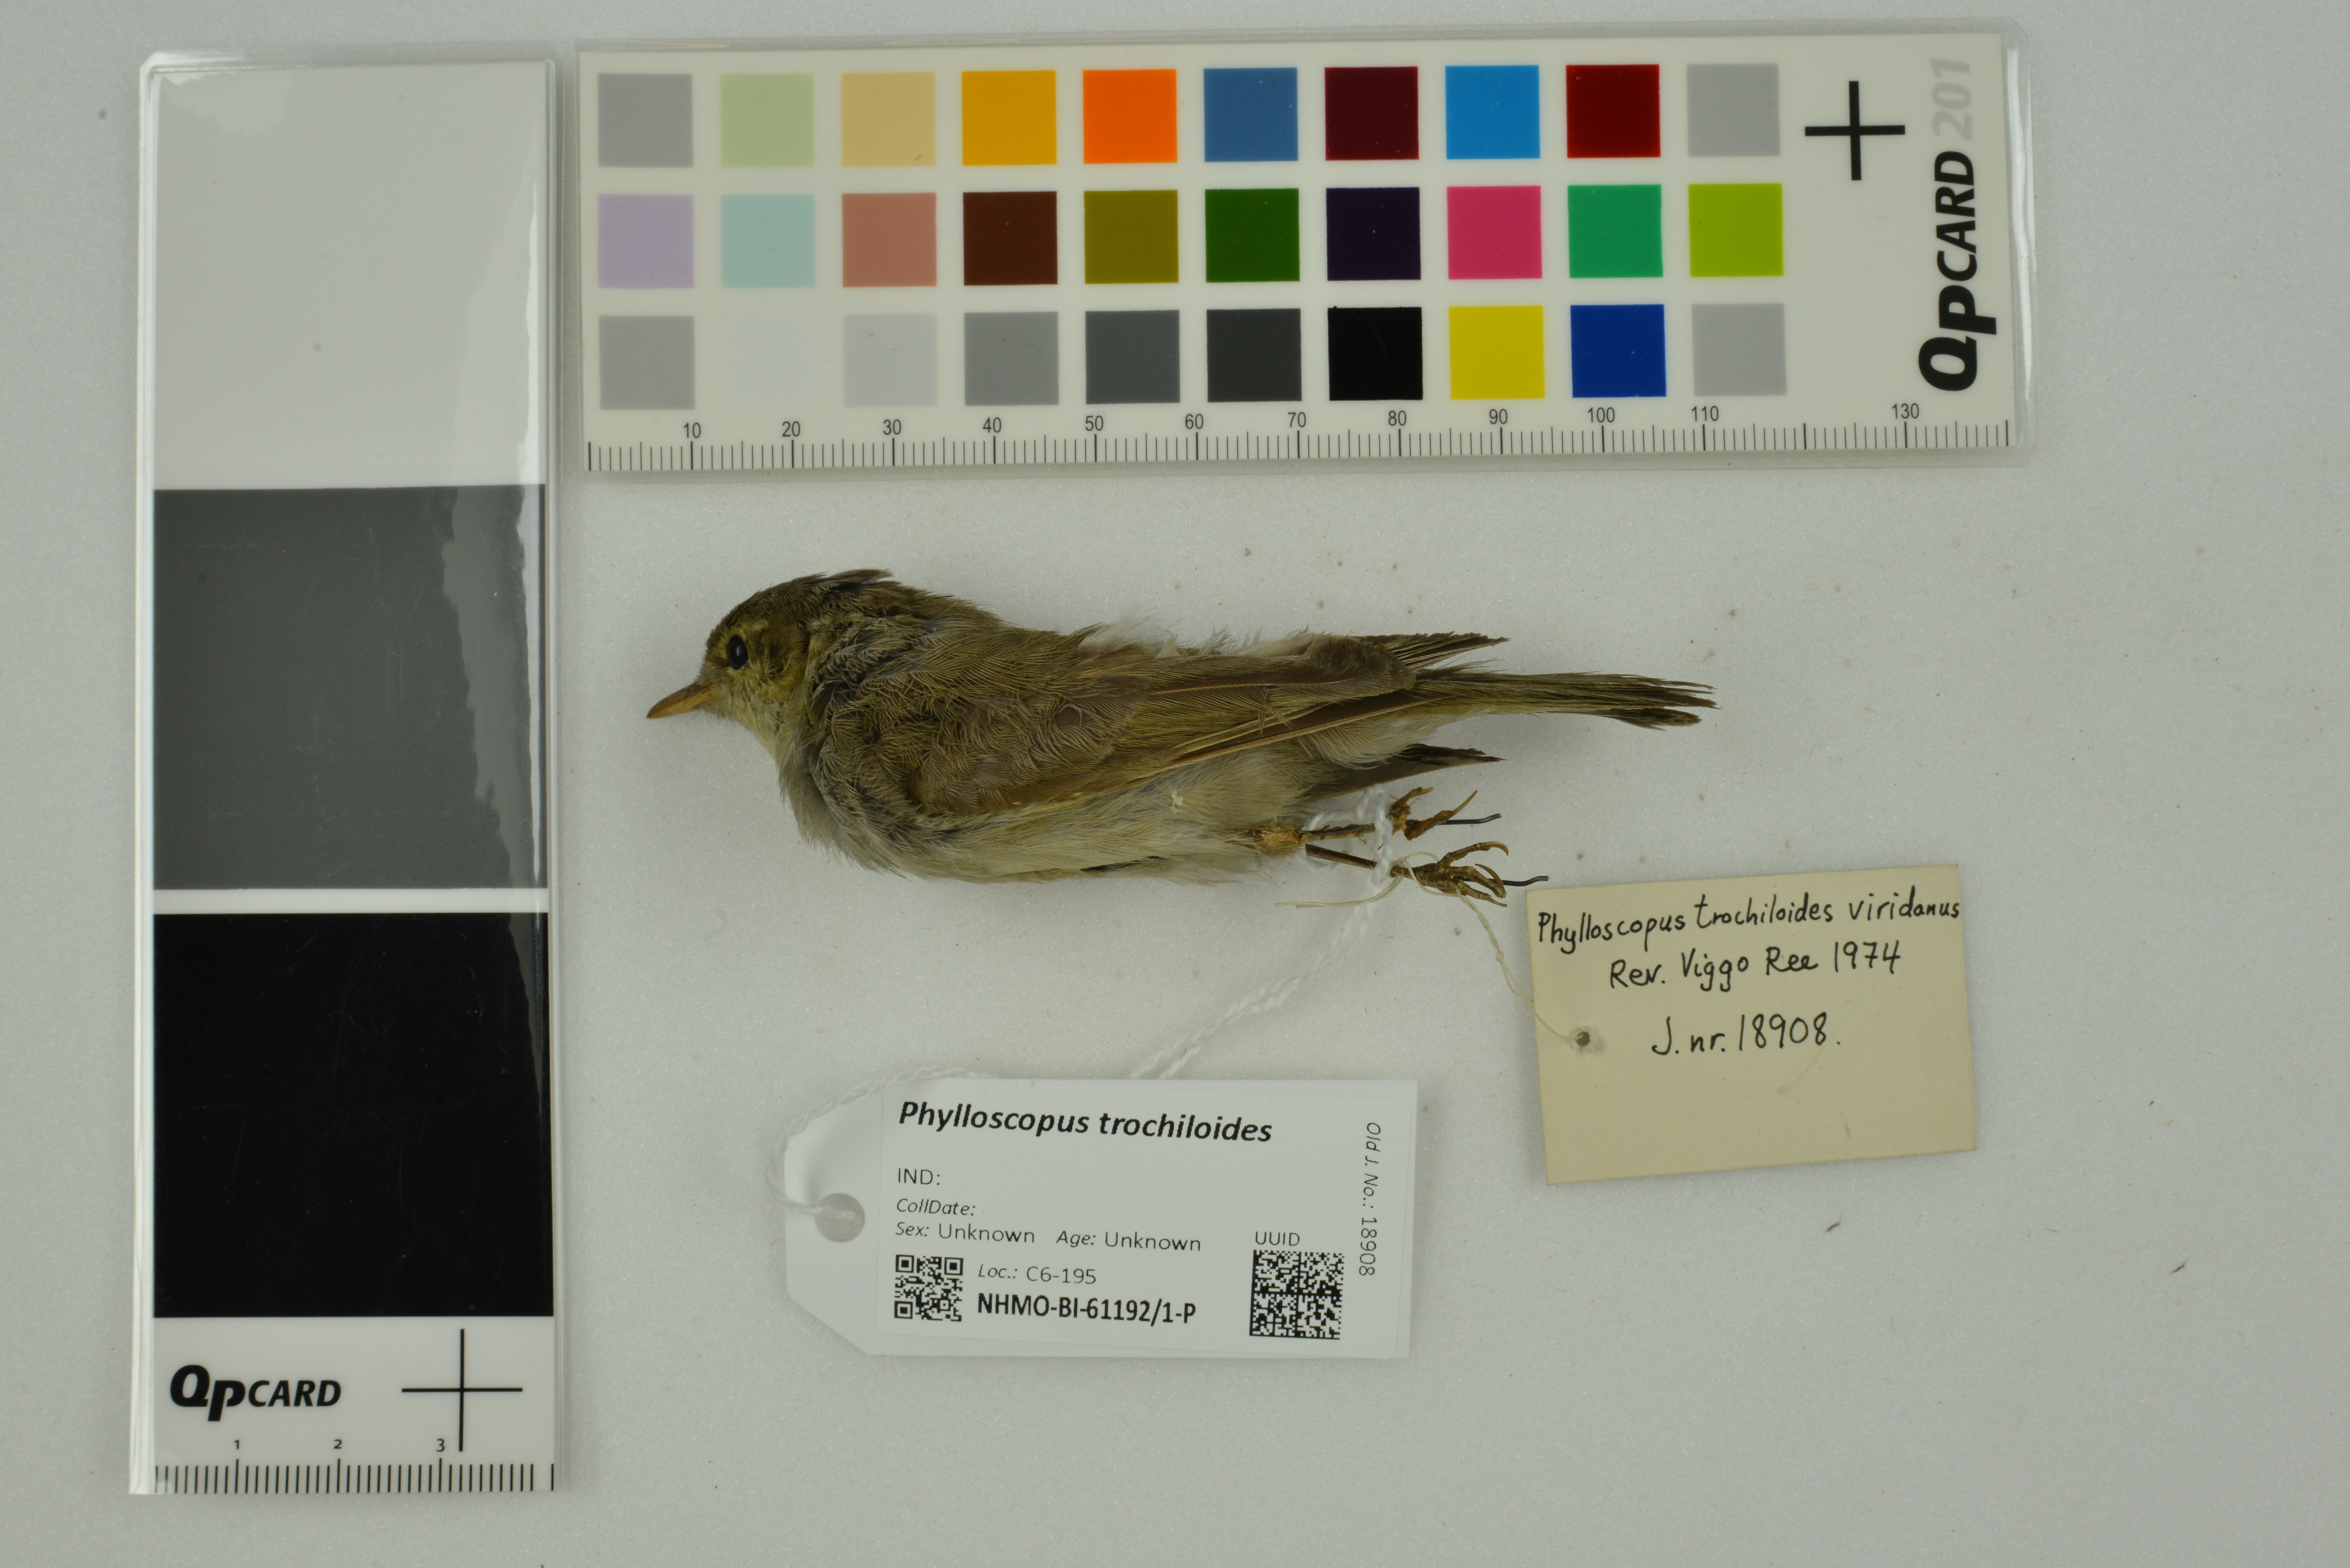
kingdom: Animalia
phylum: Chordata
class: Aves
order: Passeriformes
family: Phylloscopidae
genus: Phylloscopus
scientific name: Phylloscopus trochiloides
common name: Greenish warbler
